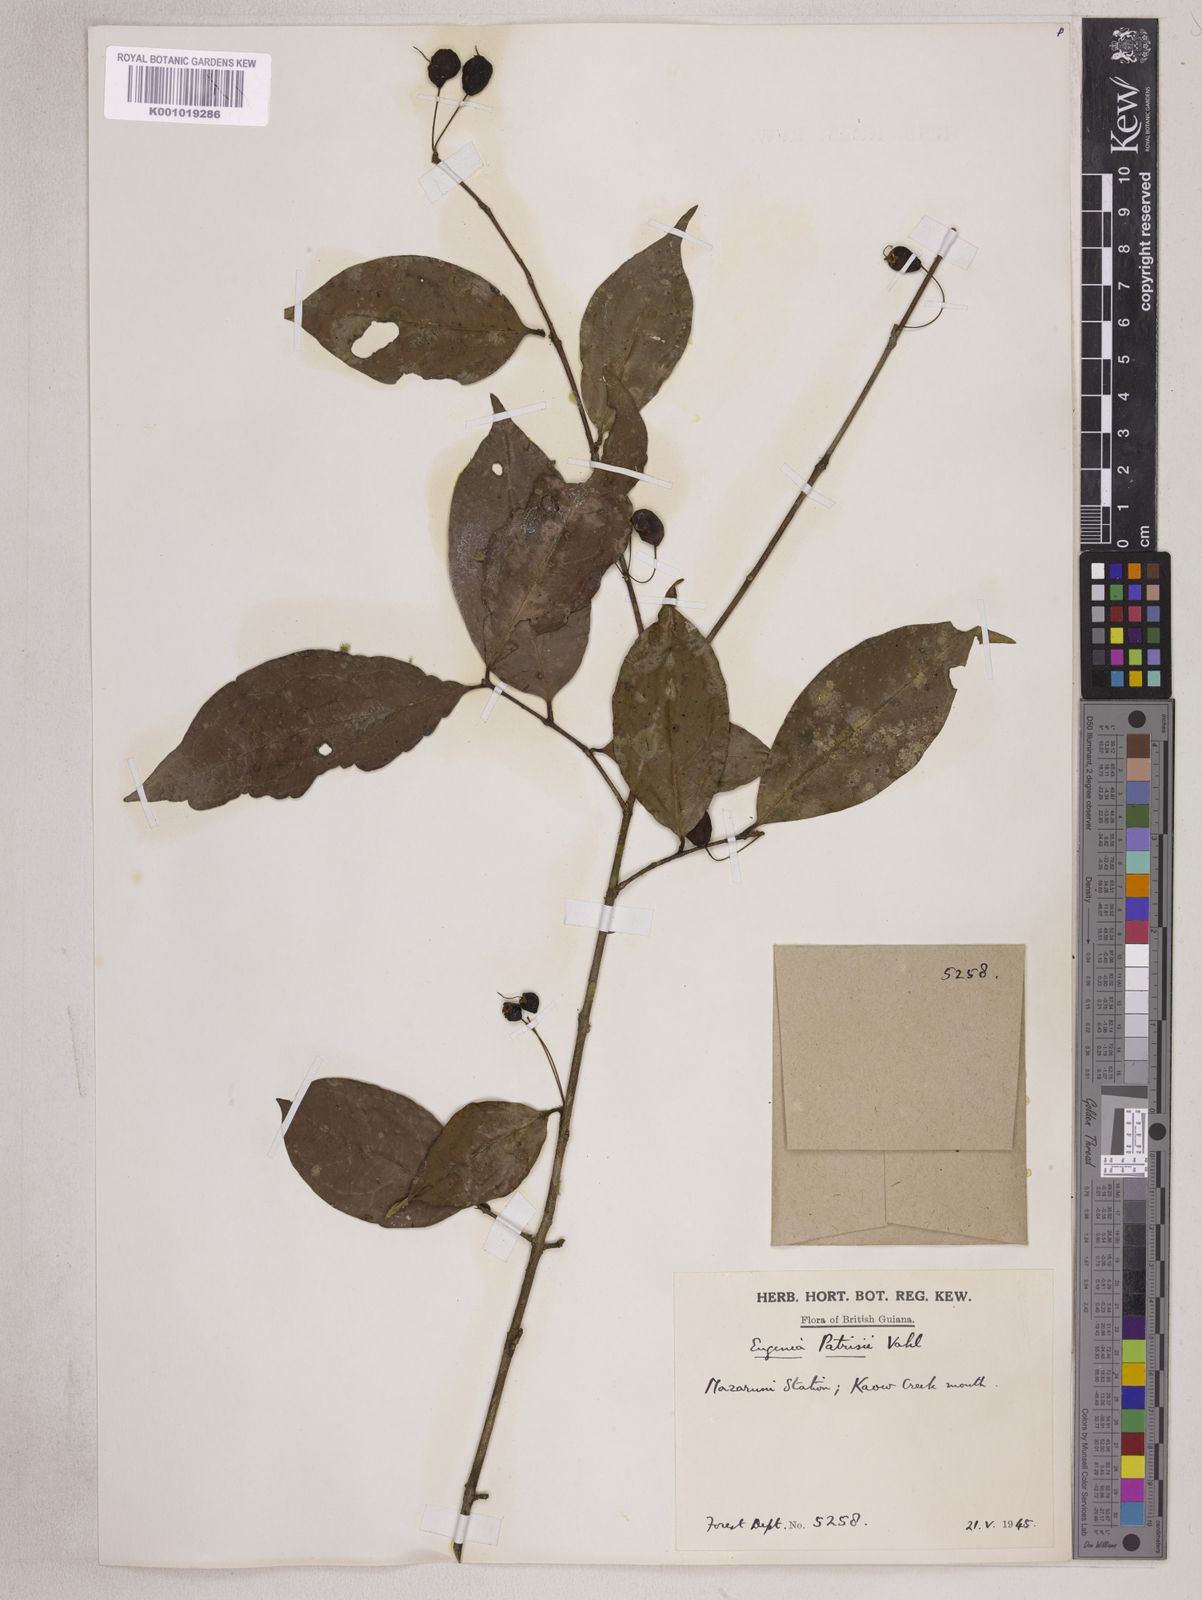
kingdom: Plantae
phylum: Tracheophyta
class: Magnoliopsida
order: Myrtales
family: Myrtaceae
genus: Eugenia
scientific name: Eugenia patrisii
